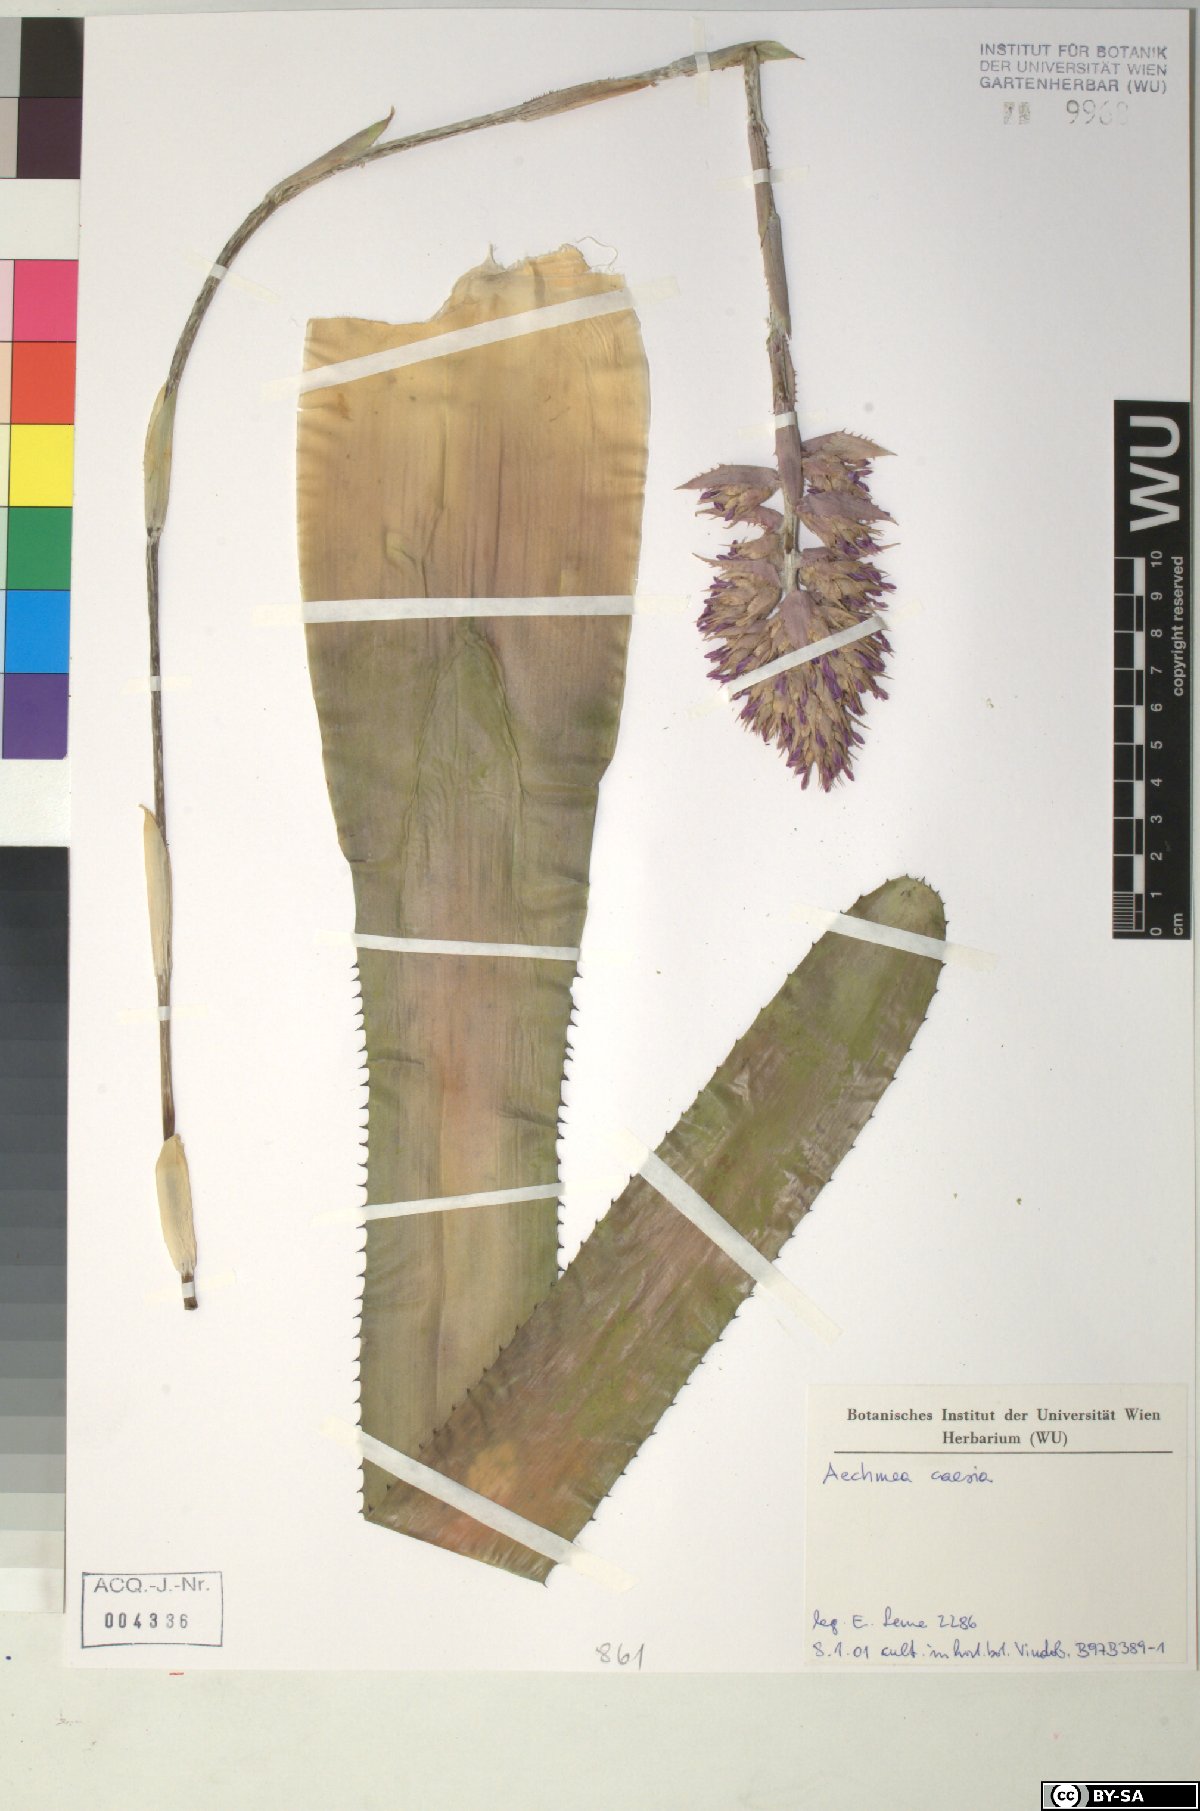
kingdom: Plantae
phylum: Tracheophyta
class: Liliopsida
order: Poales
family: Bromeliaceae
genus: Aechmea
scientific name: Aechmea
